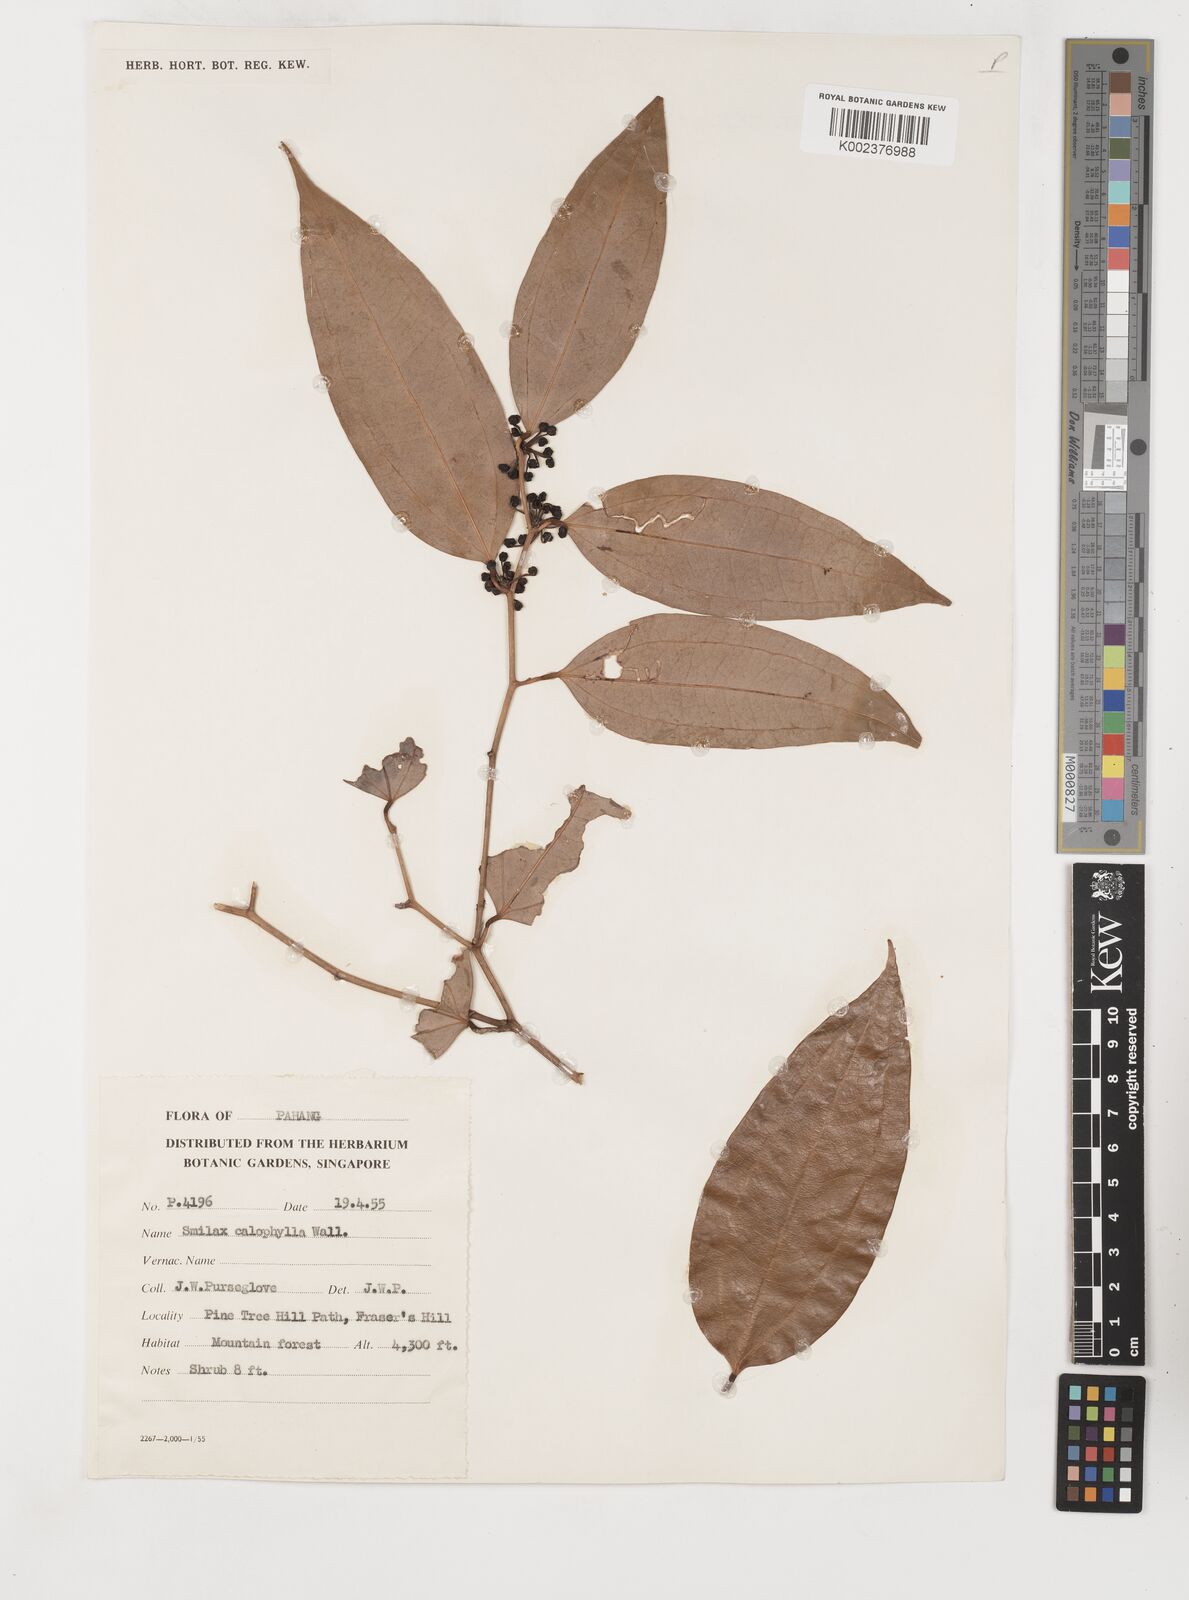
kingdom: Plantae
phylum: Tracheophyta
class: Liliopsida
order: Liliales
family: Smilacaceae
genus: Smilax
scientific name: Smilax calophylla
